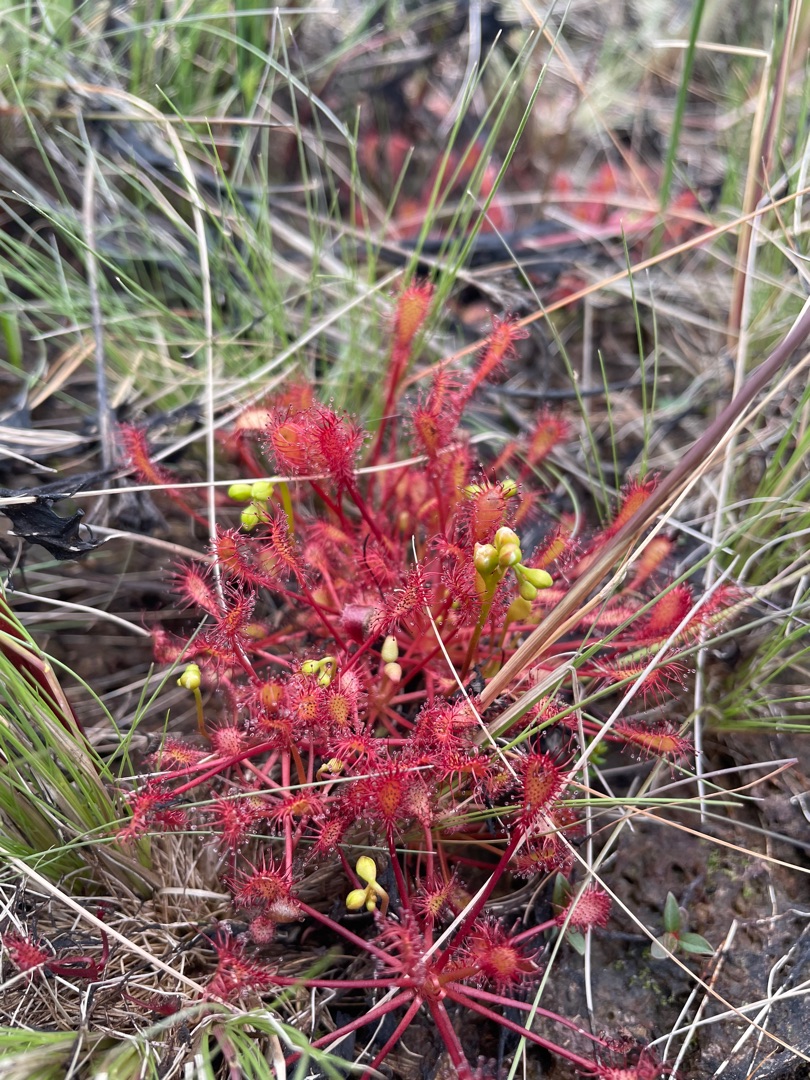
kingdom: Plantae
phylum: Tracheophyta
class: Magnoliopsida
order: Caryophyllales
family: Droseraceae
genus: Drosera
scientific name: Drosera intermedia
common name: Liden soldug
